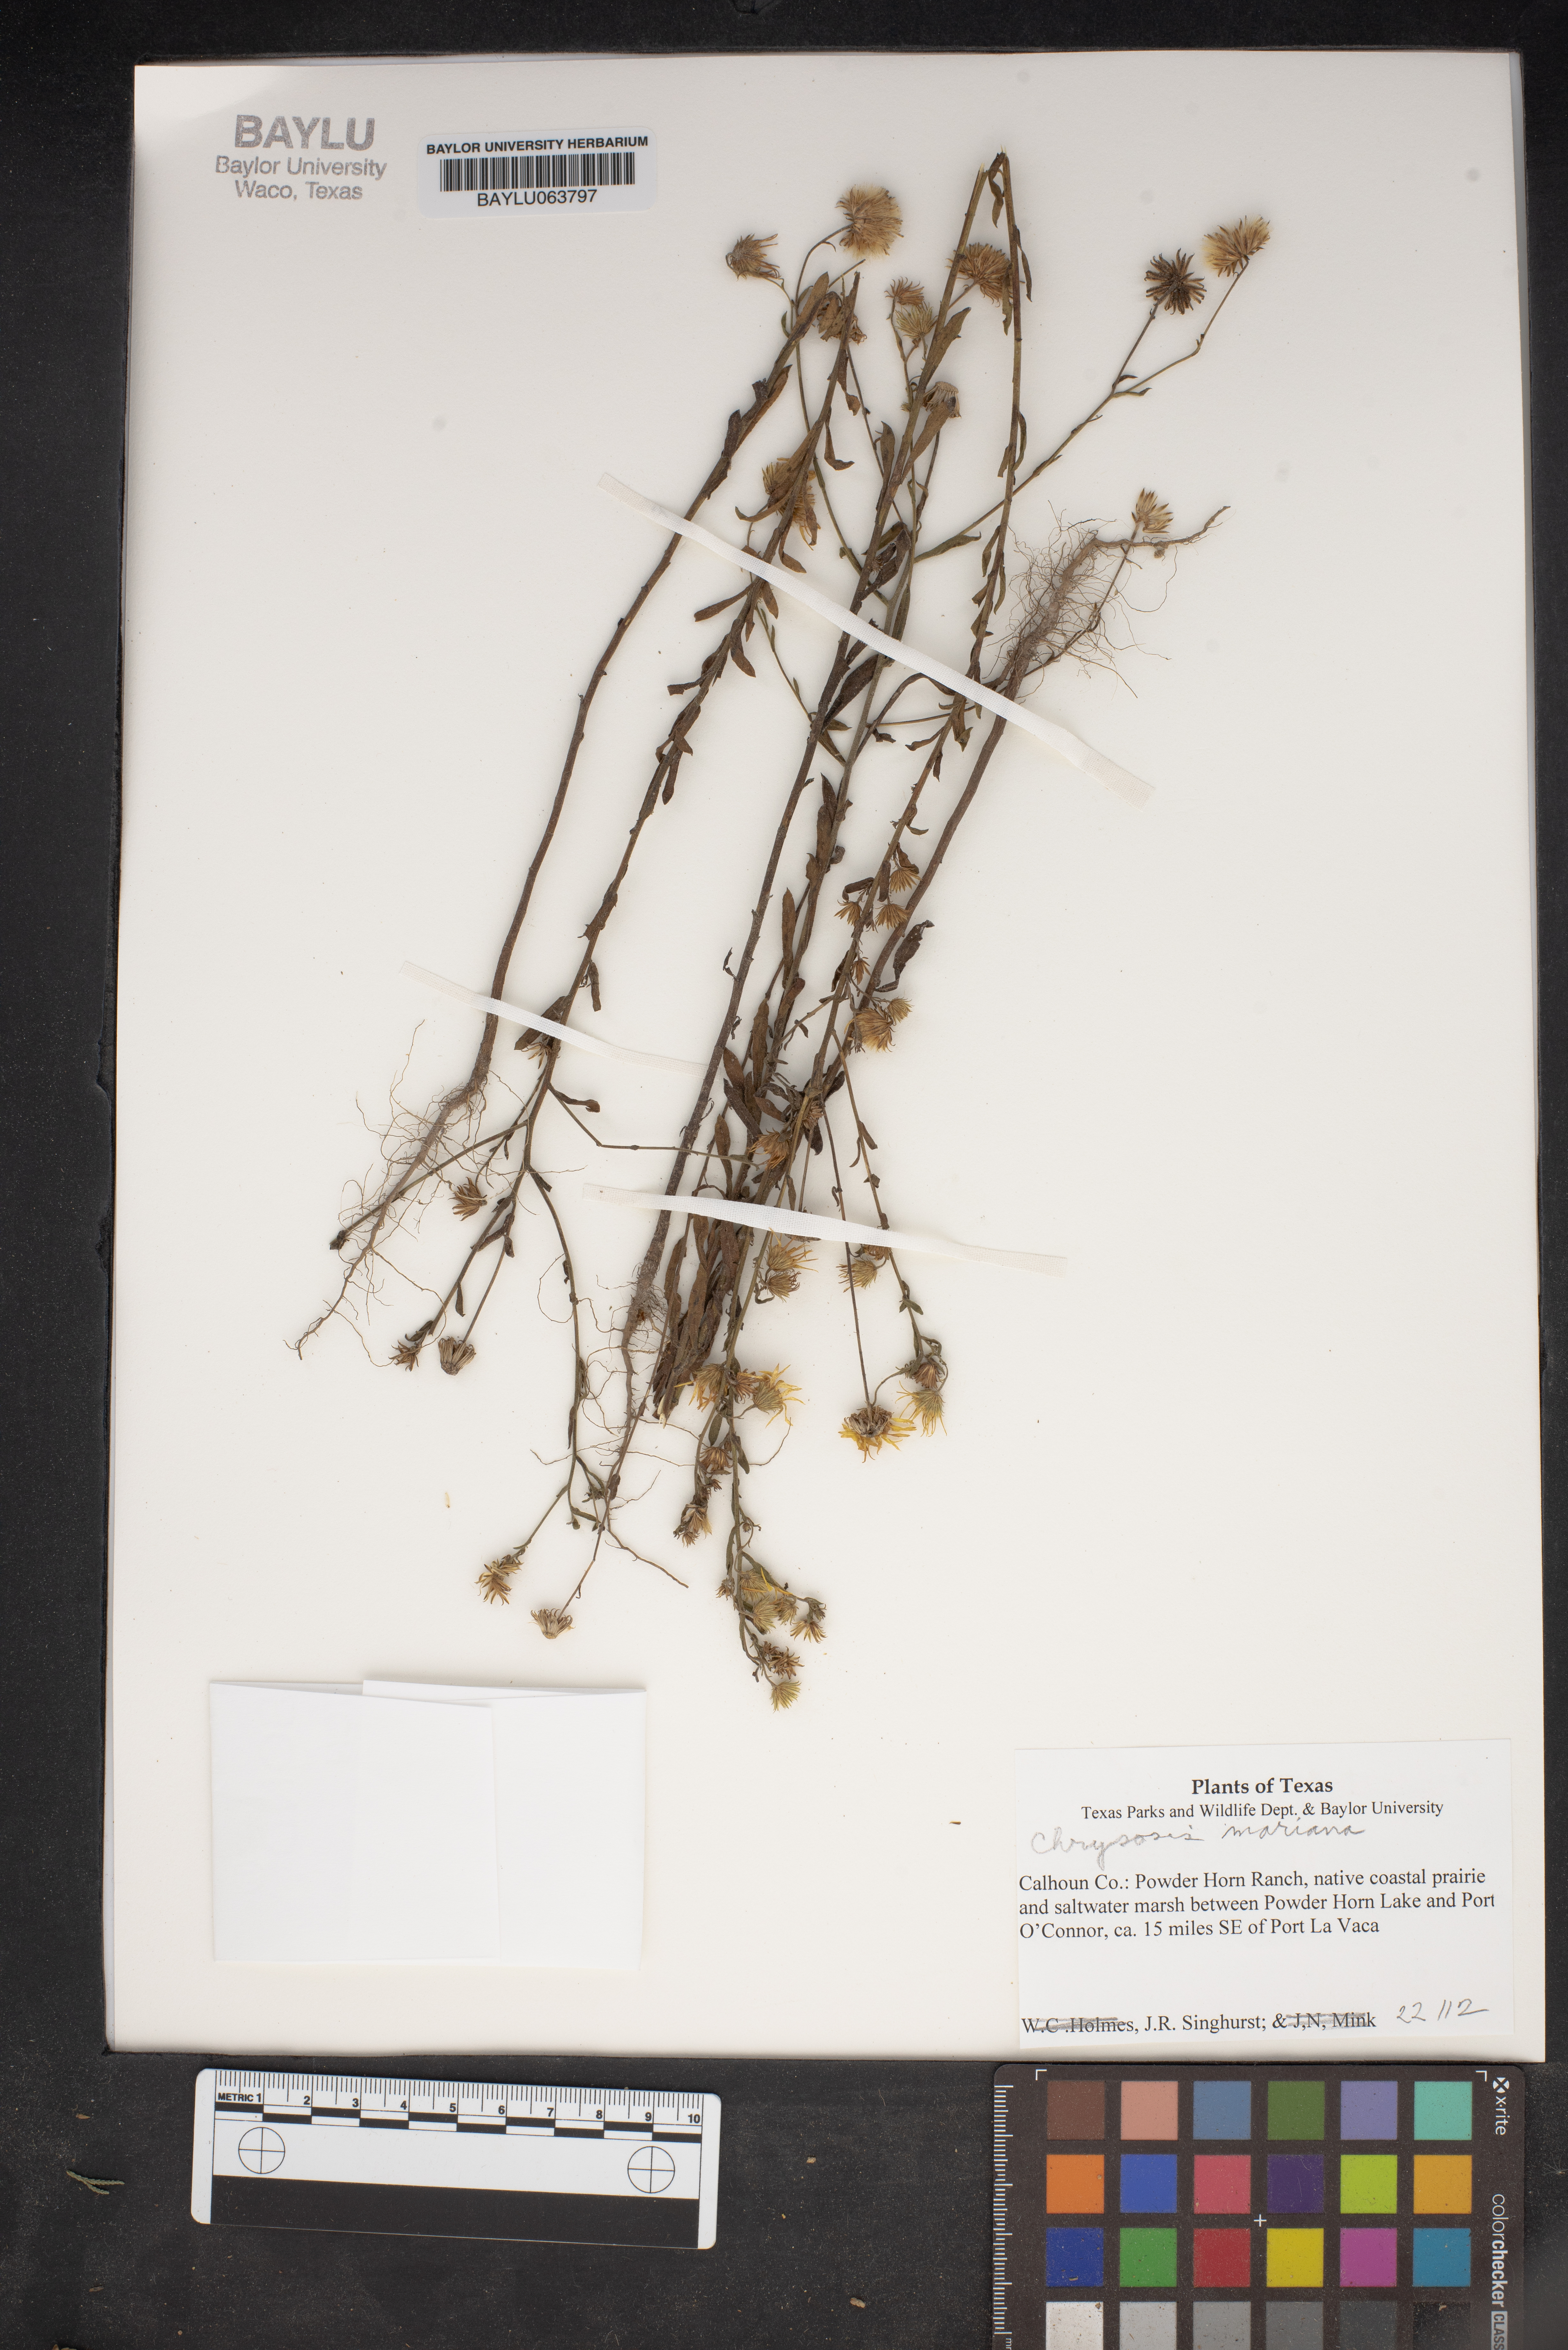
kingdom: Plantae
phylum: Tracheophyta
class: Magnoliopsida
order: Asterales
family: Asteraceae
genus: Chrysopsis
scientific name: Chrysopsis mariana
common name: Maryland golden-aster
